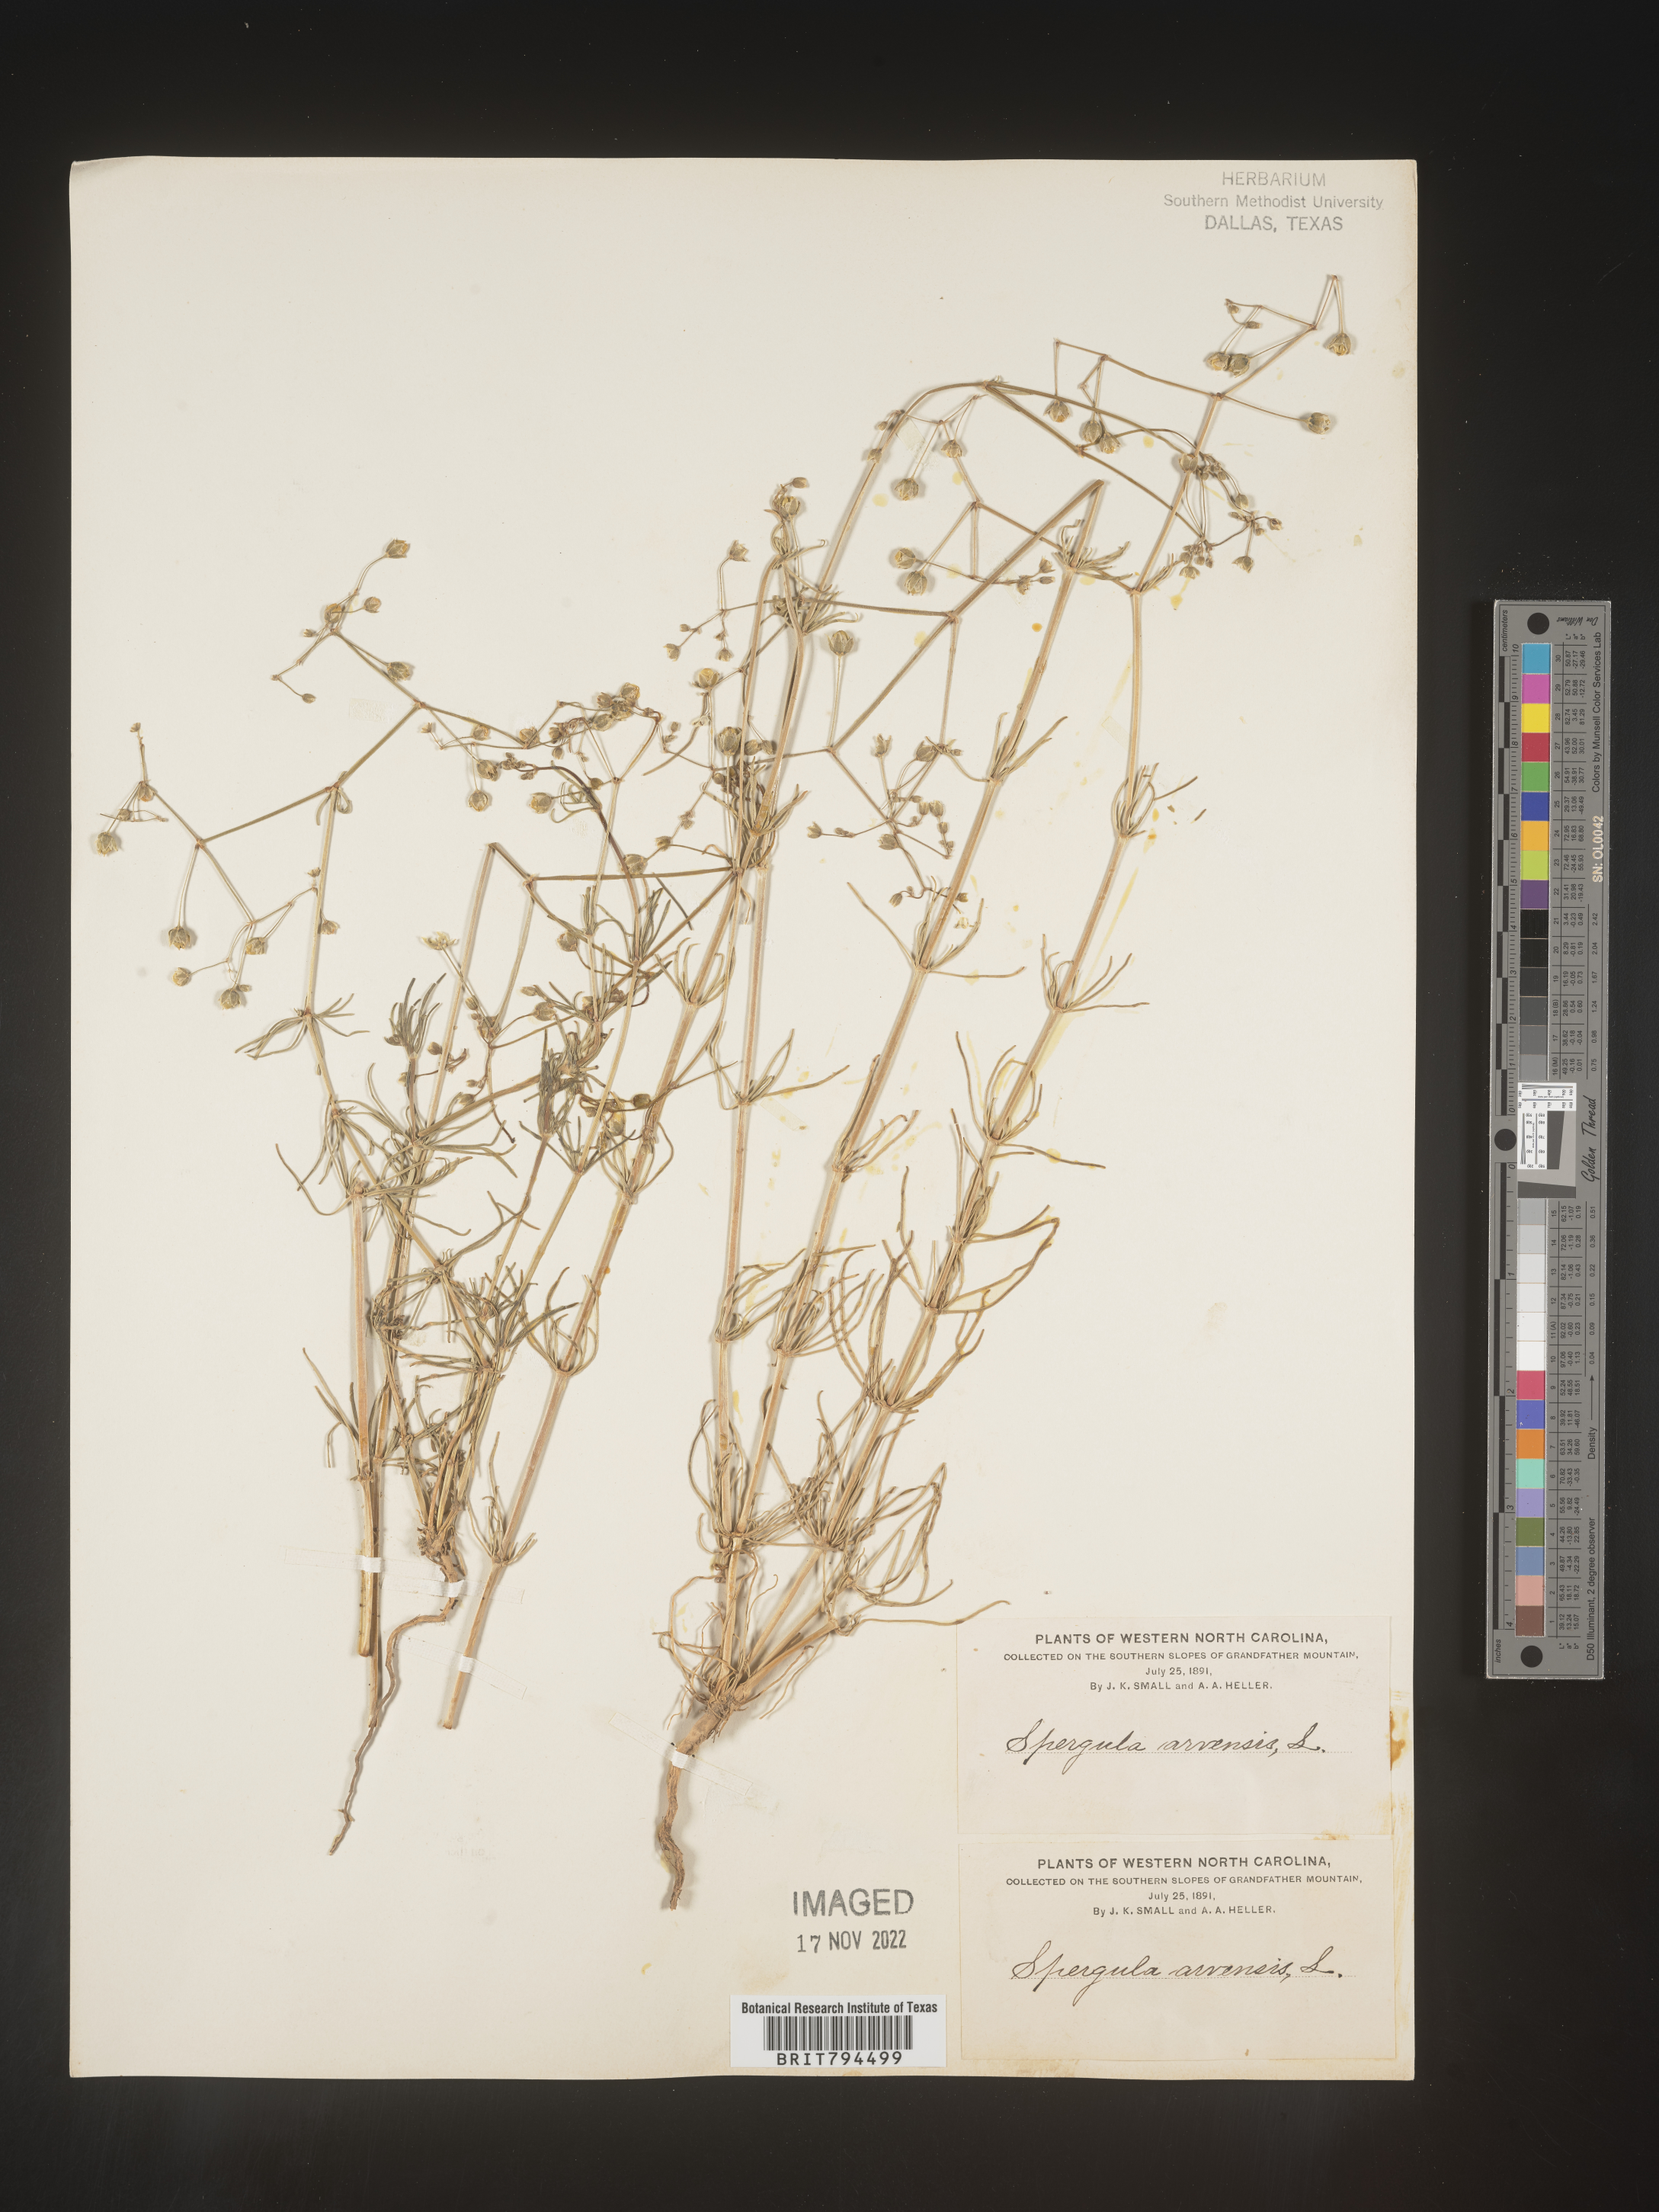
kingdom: Plantae
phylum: Tracheophyta
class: Magnoliopsida
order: Caryophyllales
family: Caryophyllaceae
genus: Spergula
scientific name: Spergula arvensis
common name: Corn spurrey
